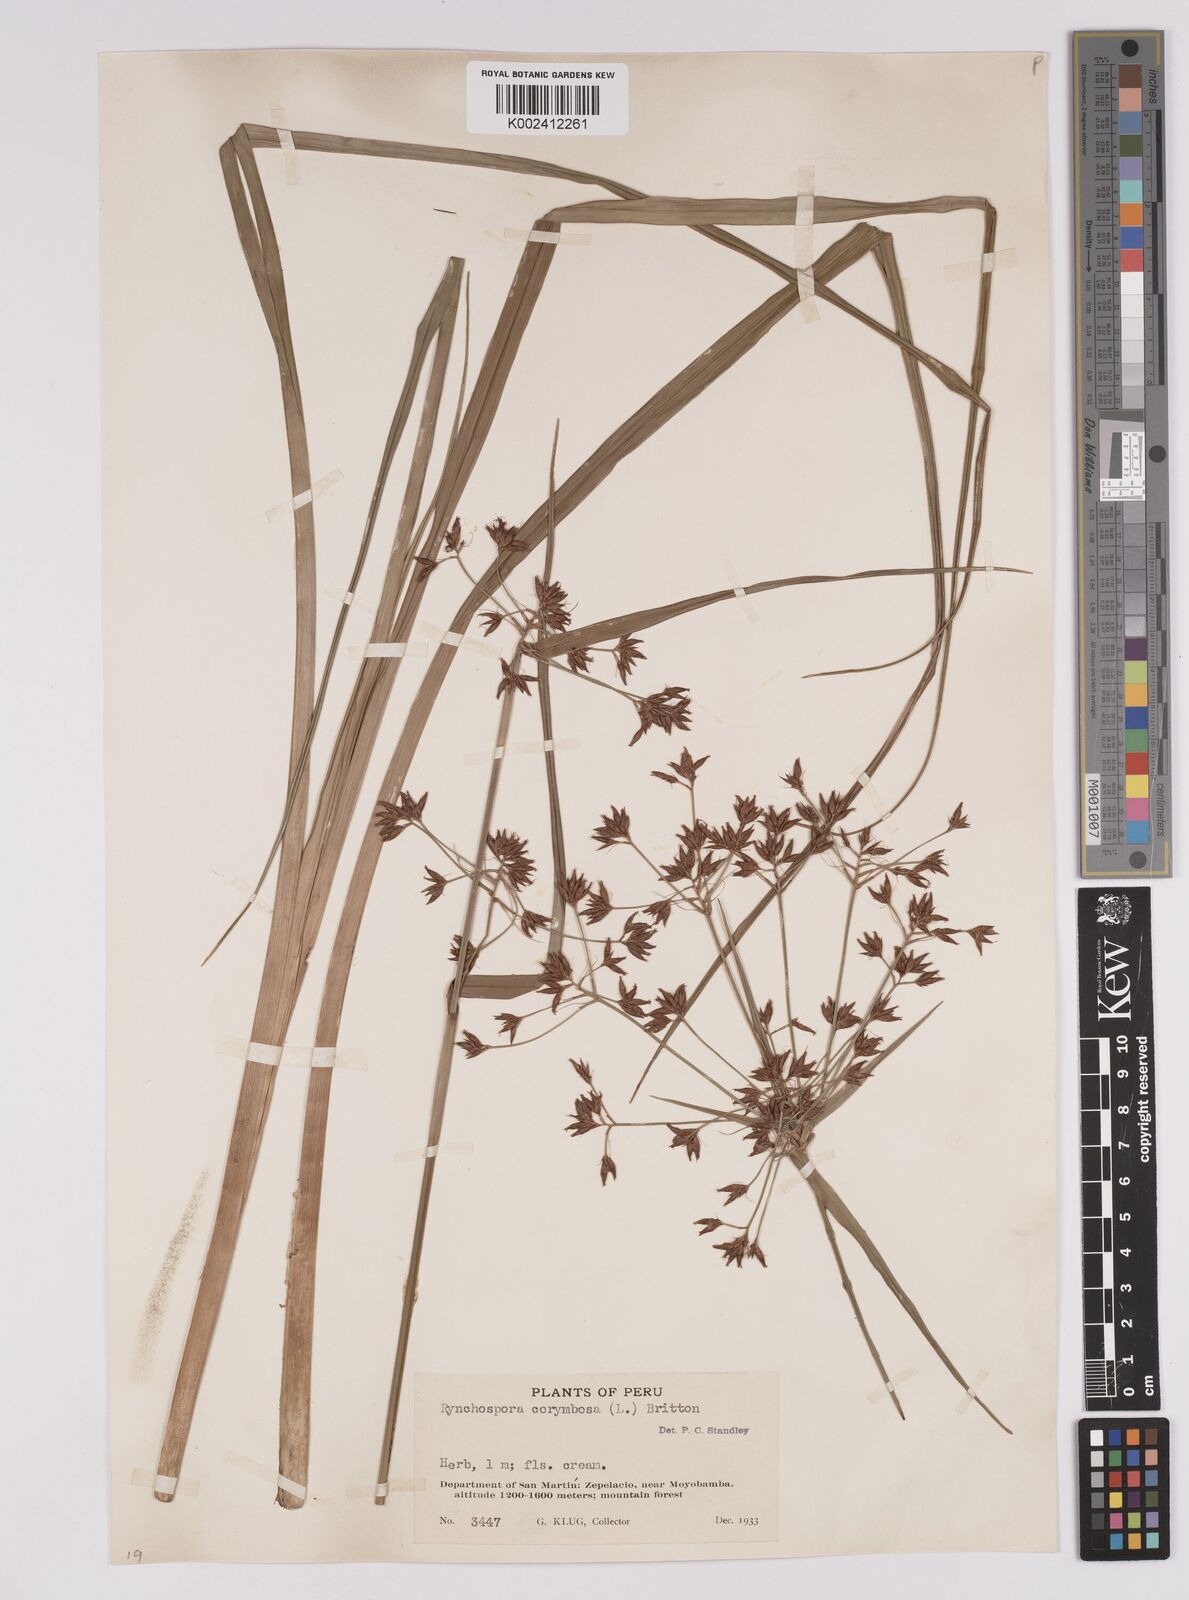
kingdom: Plantae
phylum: Tracheophyta
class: Liliopsida
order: Poales
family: Cyperaceae
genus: Rhynchospora
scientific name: Rhynchospora corymbosa
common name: Golden beak sedge
